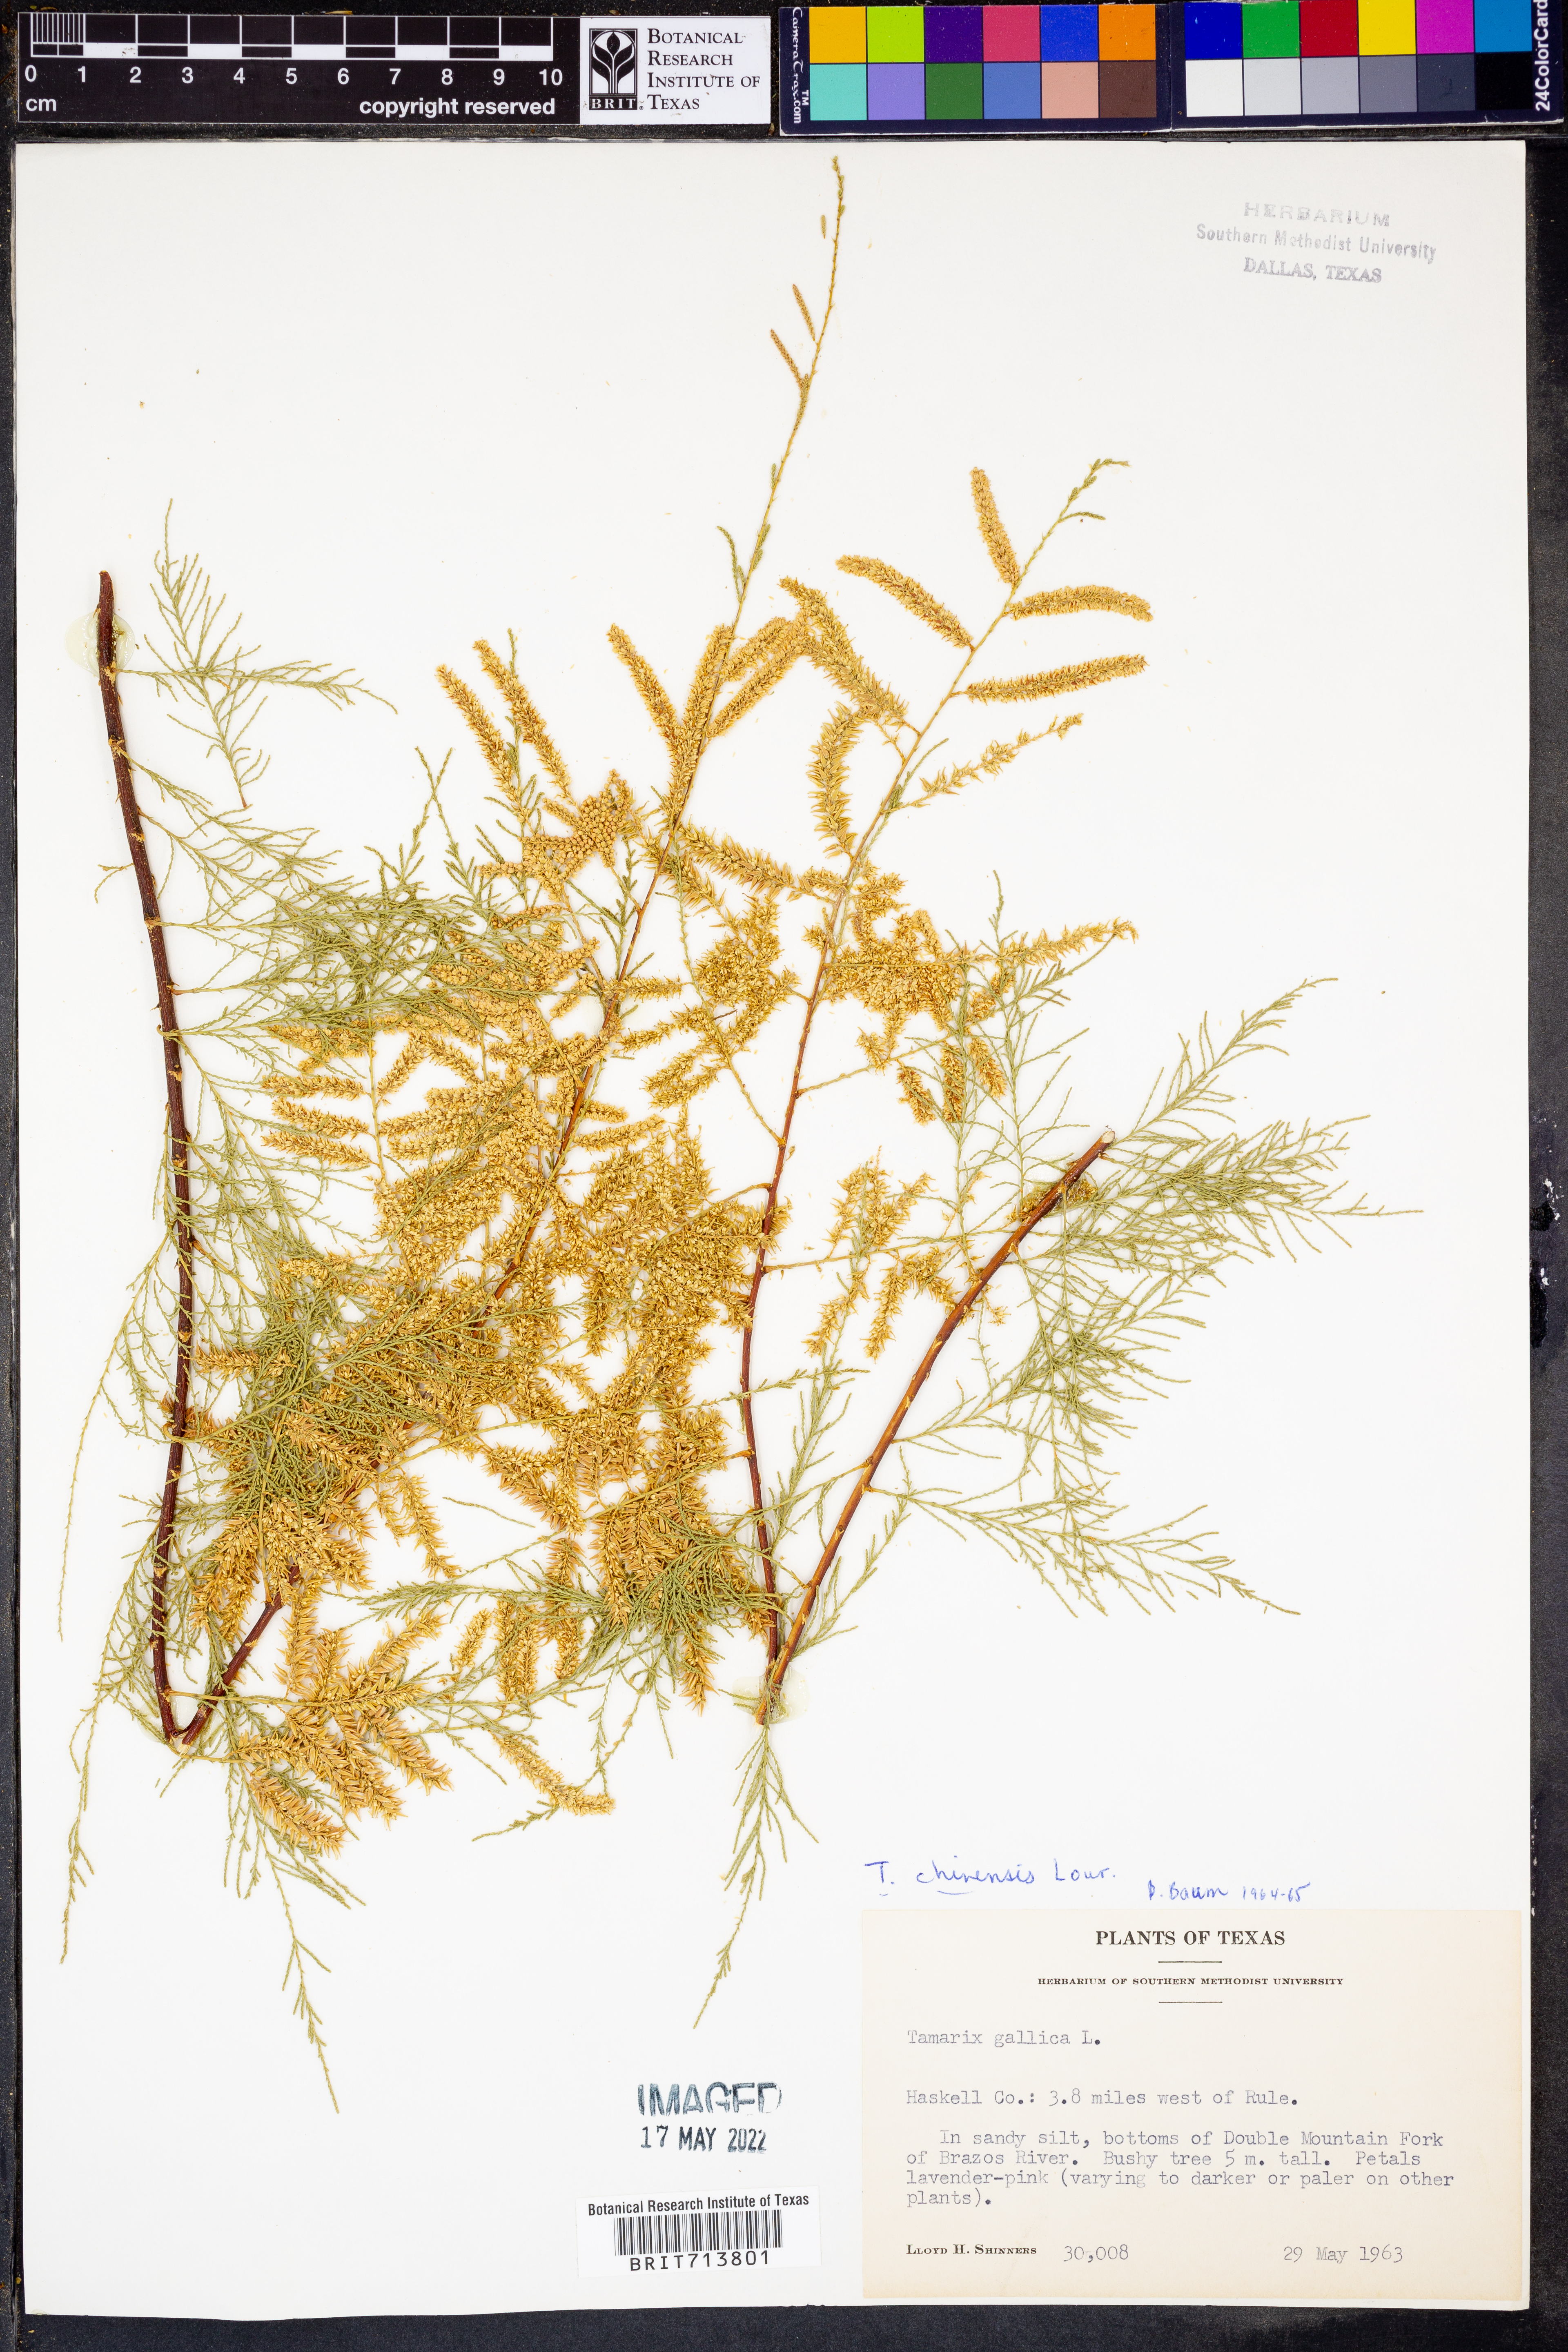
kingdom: Plantae
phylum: Tracheophyta
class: Magnoliopsida
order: Caryophyllales
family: Tamaricaceae
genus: Tamarix
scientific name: Tamarix chinensis
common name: Chinese tamarisk
